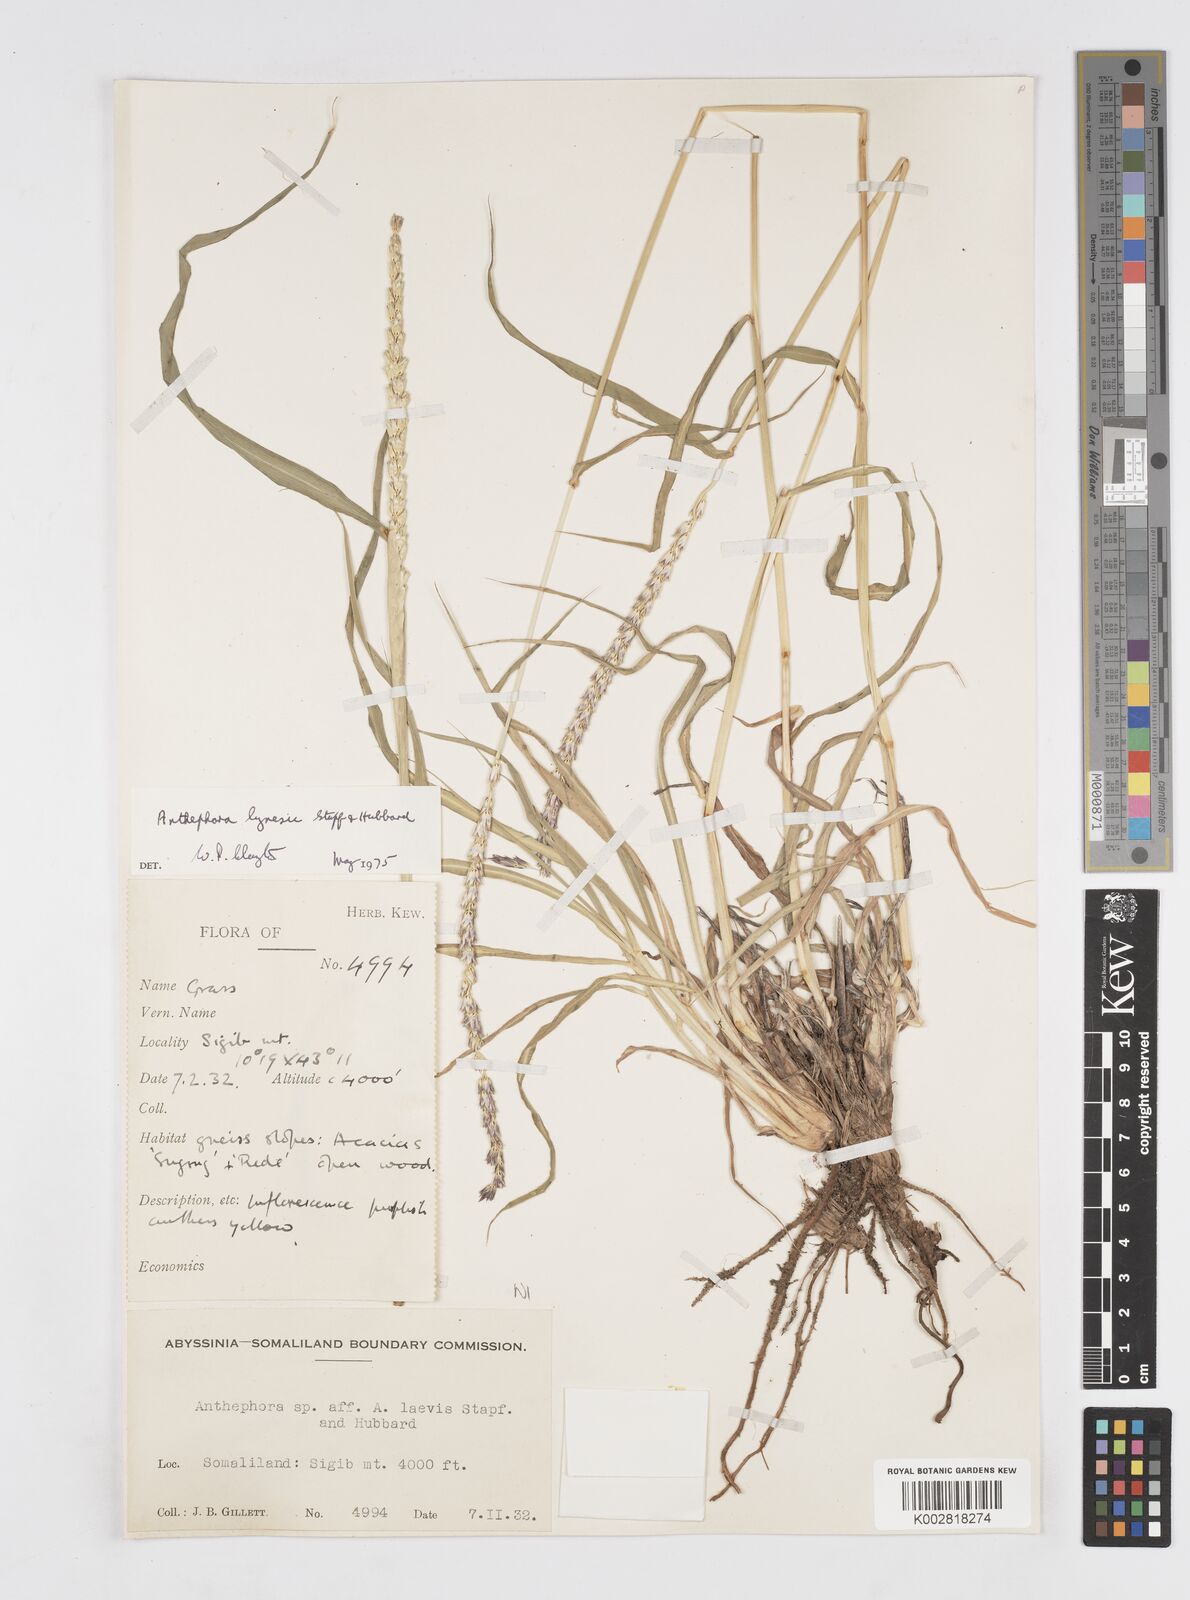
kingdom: Plantae
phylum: Tracheophyta
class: Liliopsida
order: Poales
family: Poaceae
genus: Anthephora
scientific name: Anthephora nigritana
